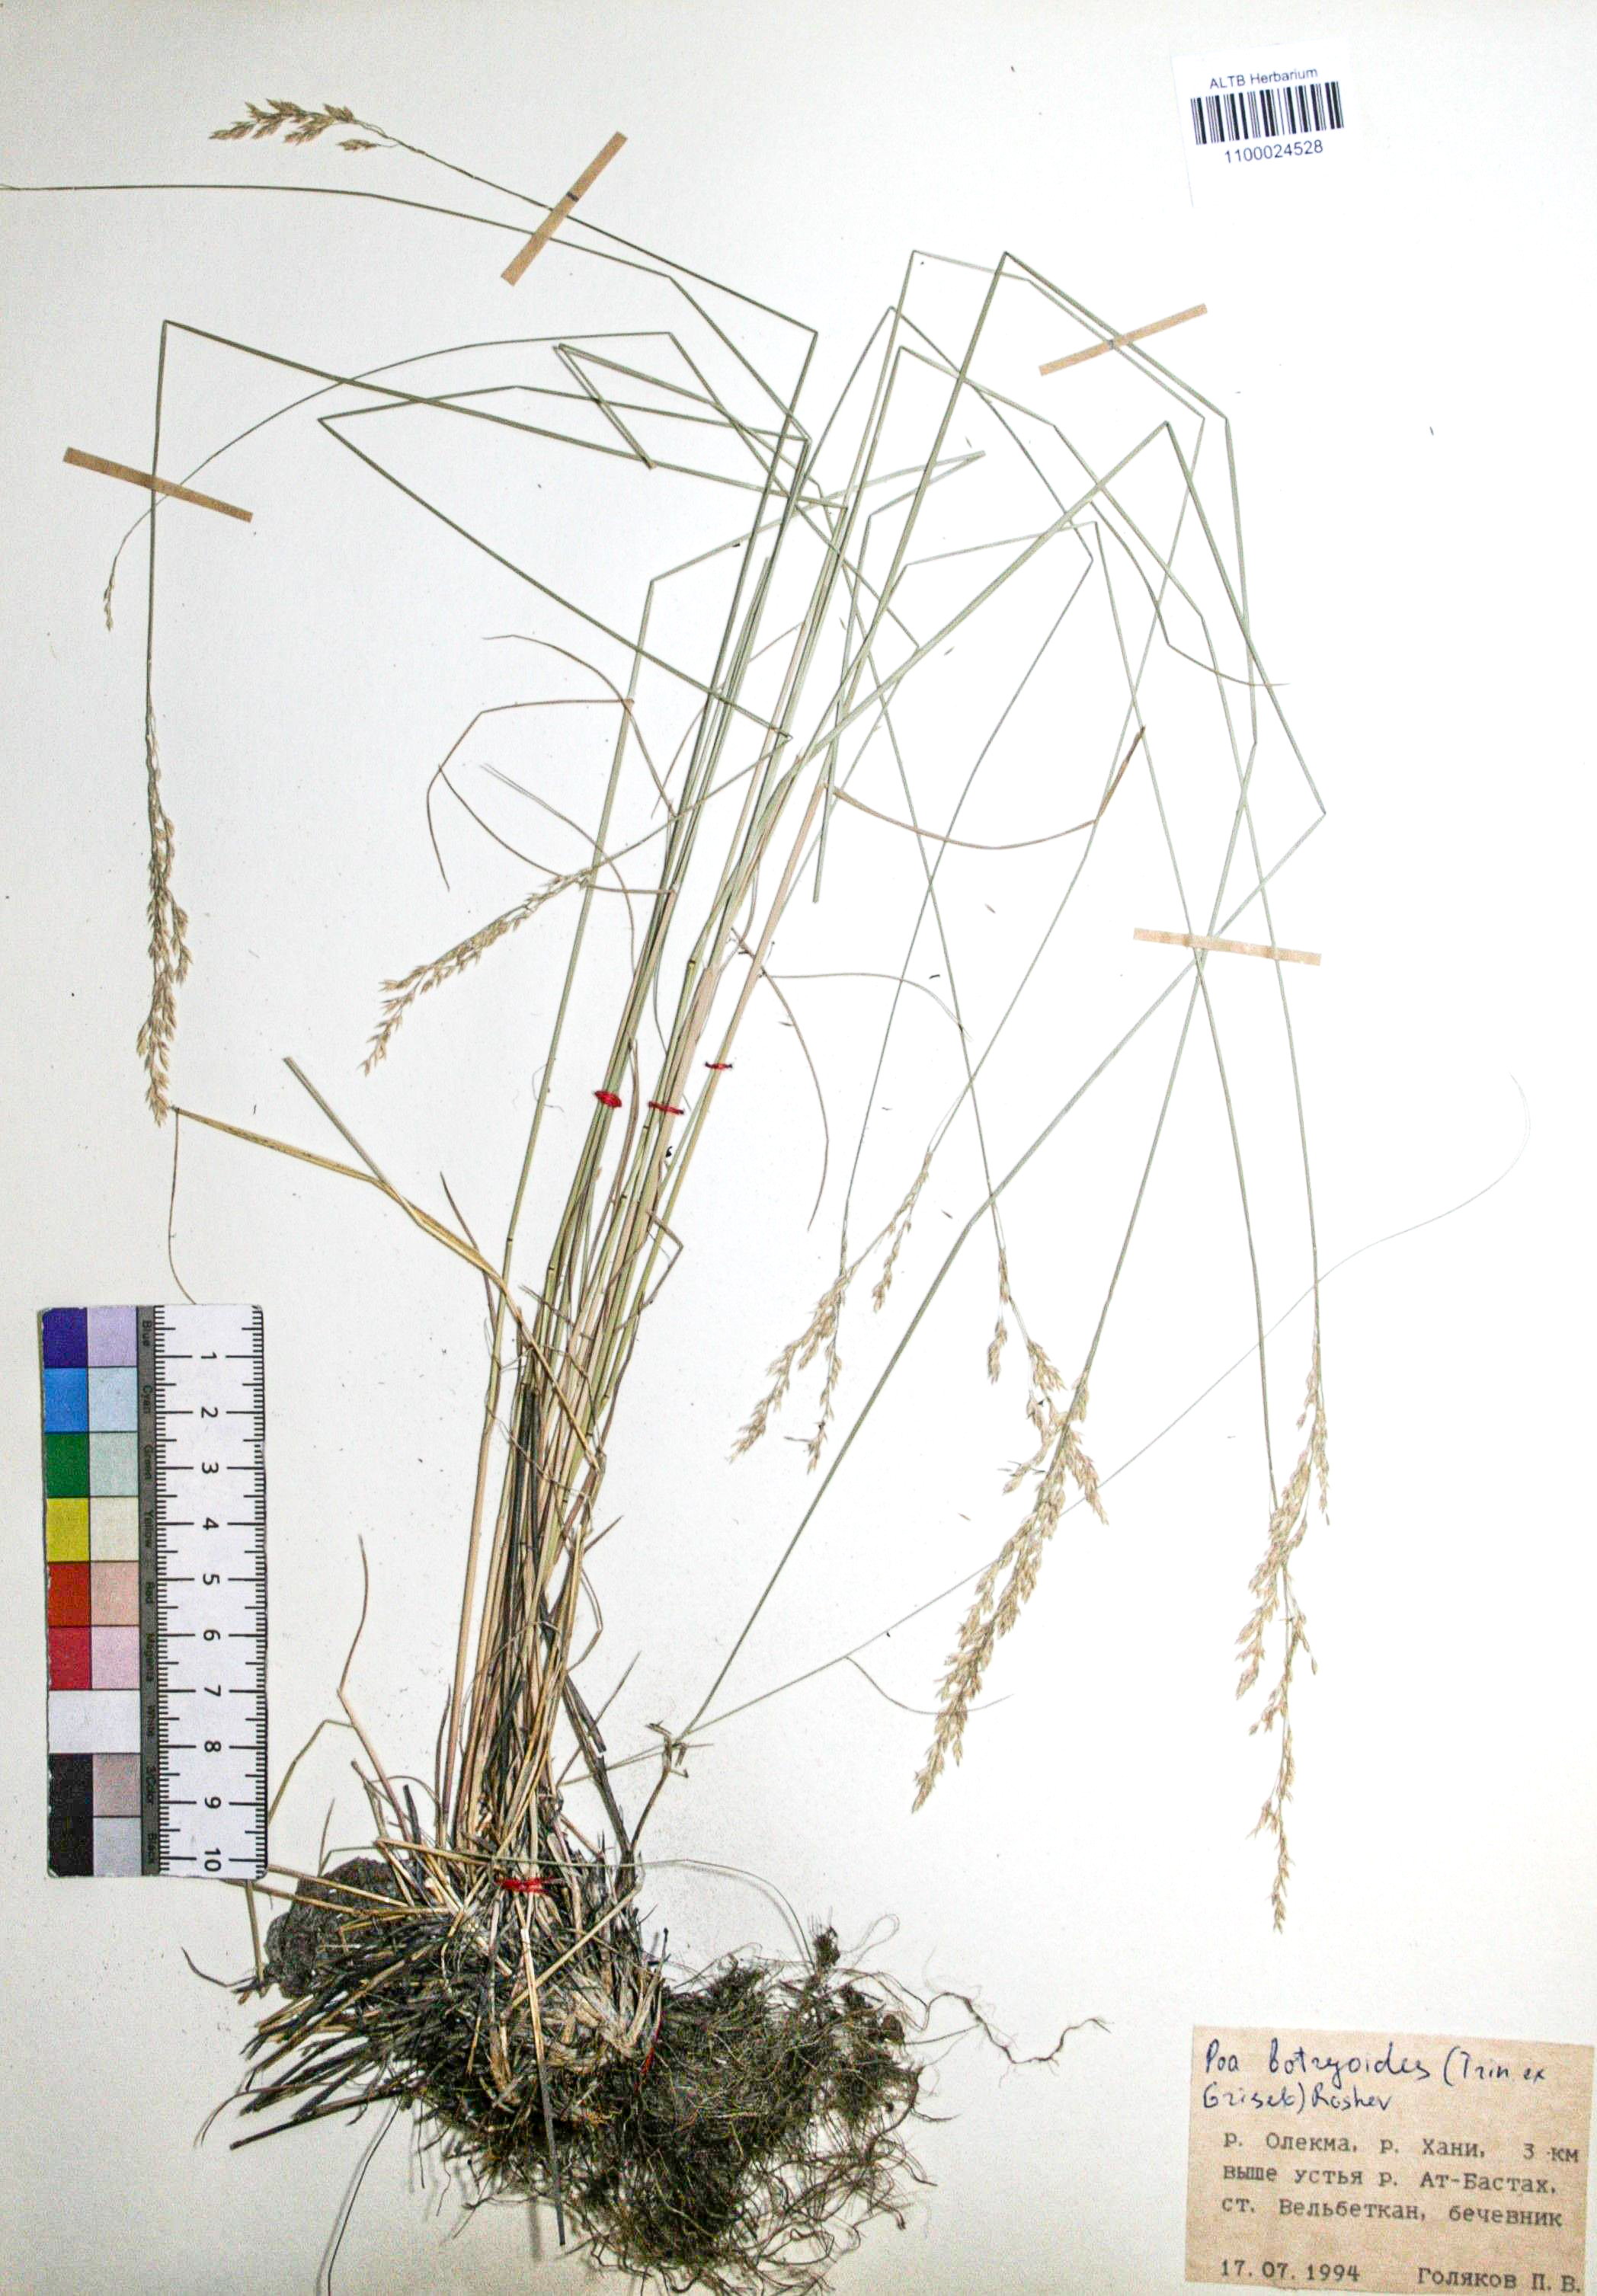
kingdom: Plantae
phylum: Tracheophyta
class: Liliopsida
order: Poales
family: Poaceae
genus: Poa
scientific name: Poa attenuata
